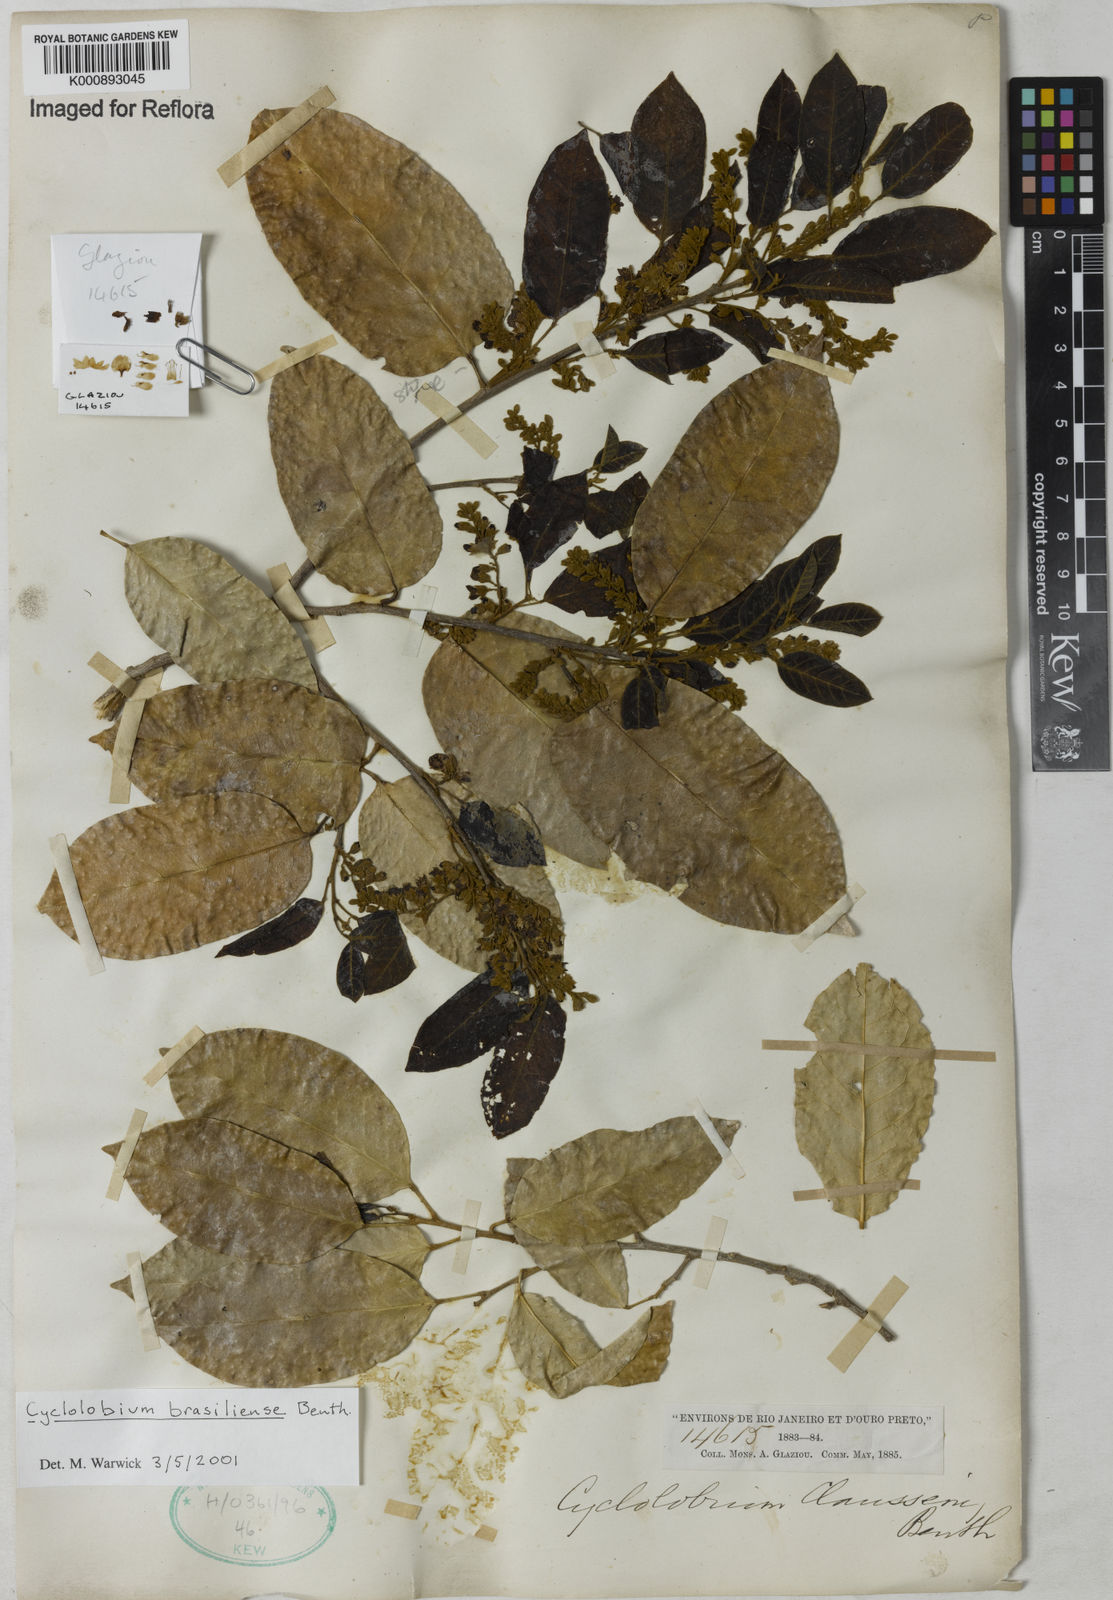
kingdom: Plantae
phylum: Tracheophyta
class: Magnoliopsida
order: Fabales
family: Fabaceae
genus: Cyclolobium
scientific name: Cyclolobium brasiliense
